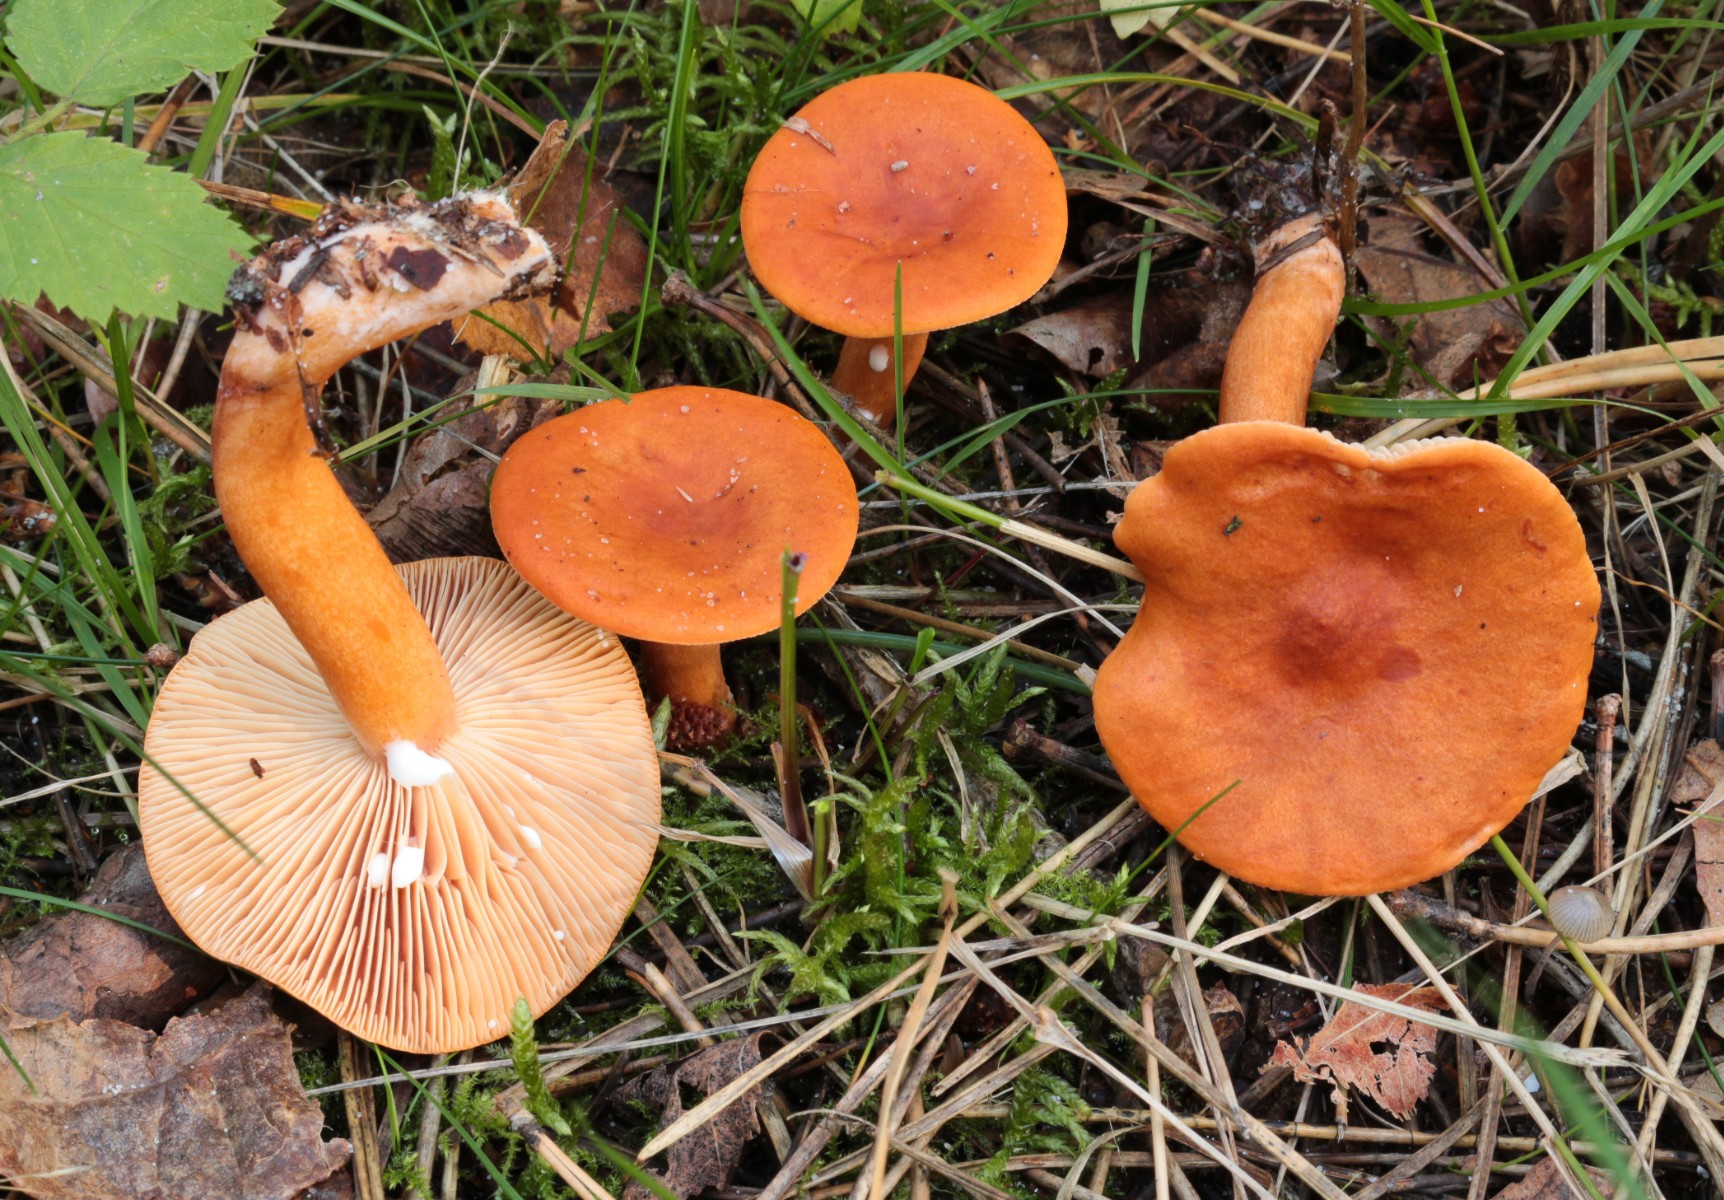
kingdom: Fungi
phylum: Basidiomycota
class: Agaricomycetes
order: Russulales
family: Russulaceae
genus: Lactarius
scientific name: Lactarius aurantiacus
